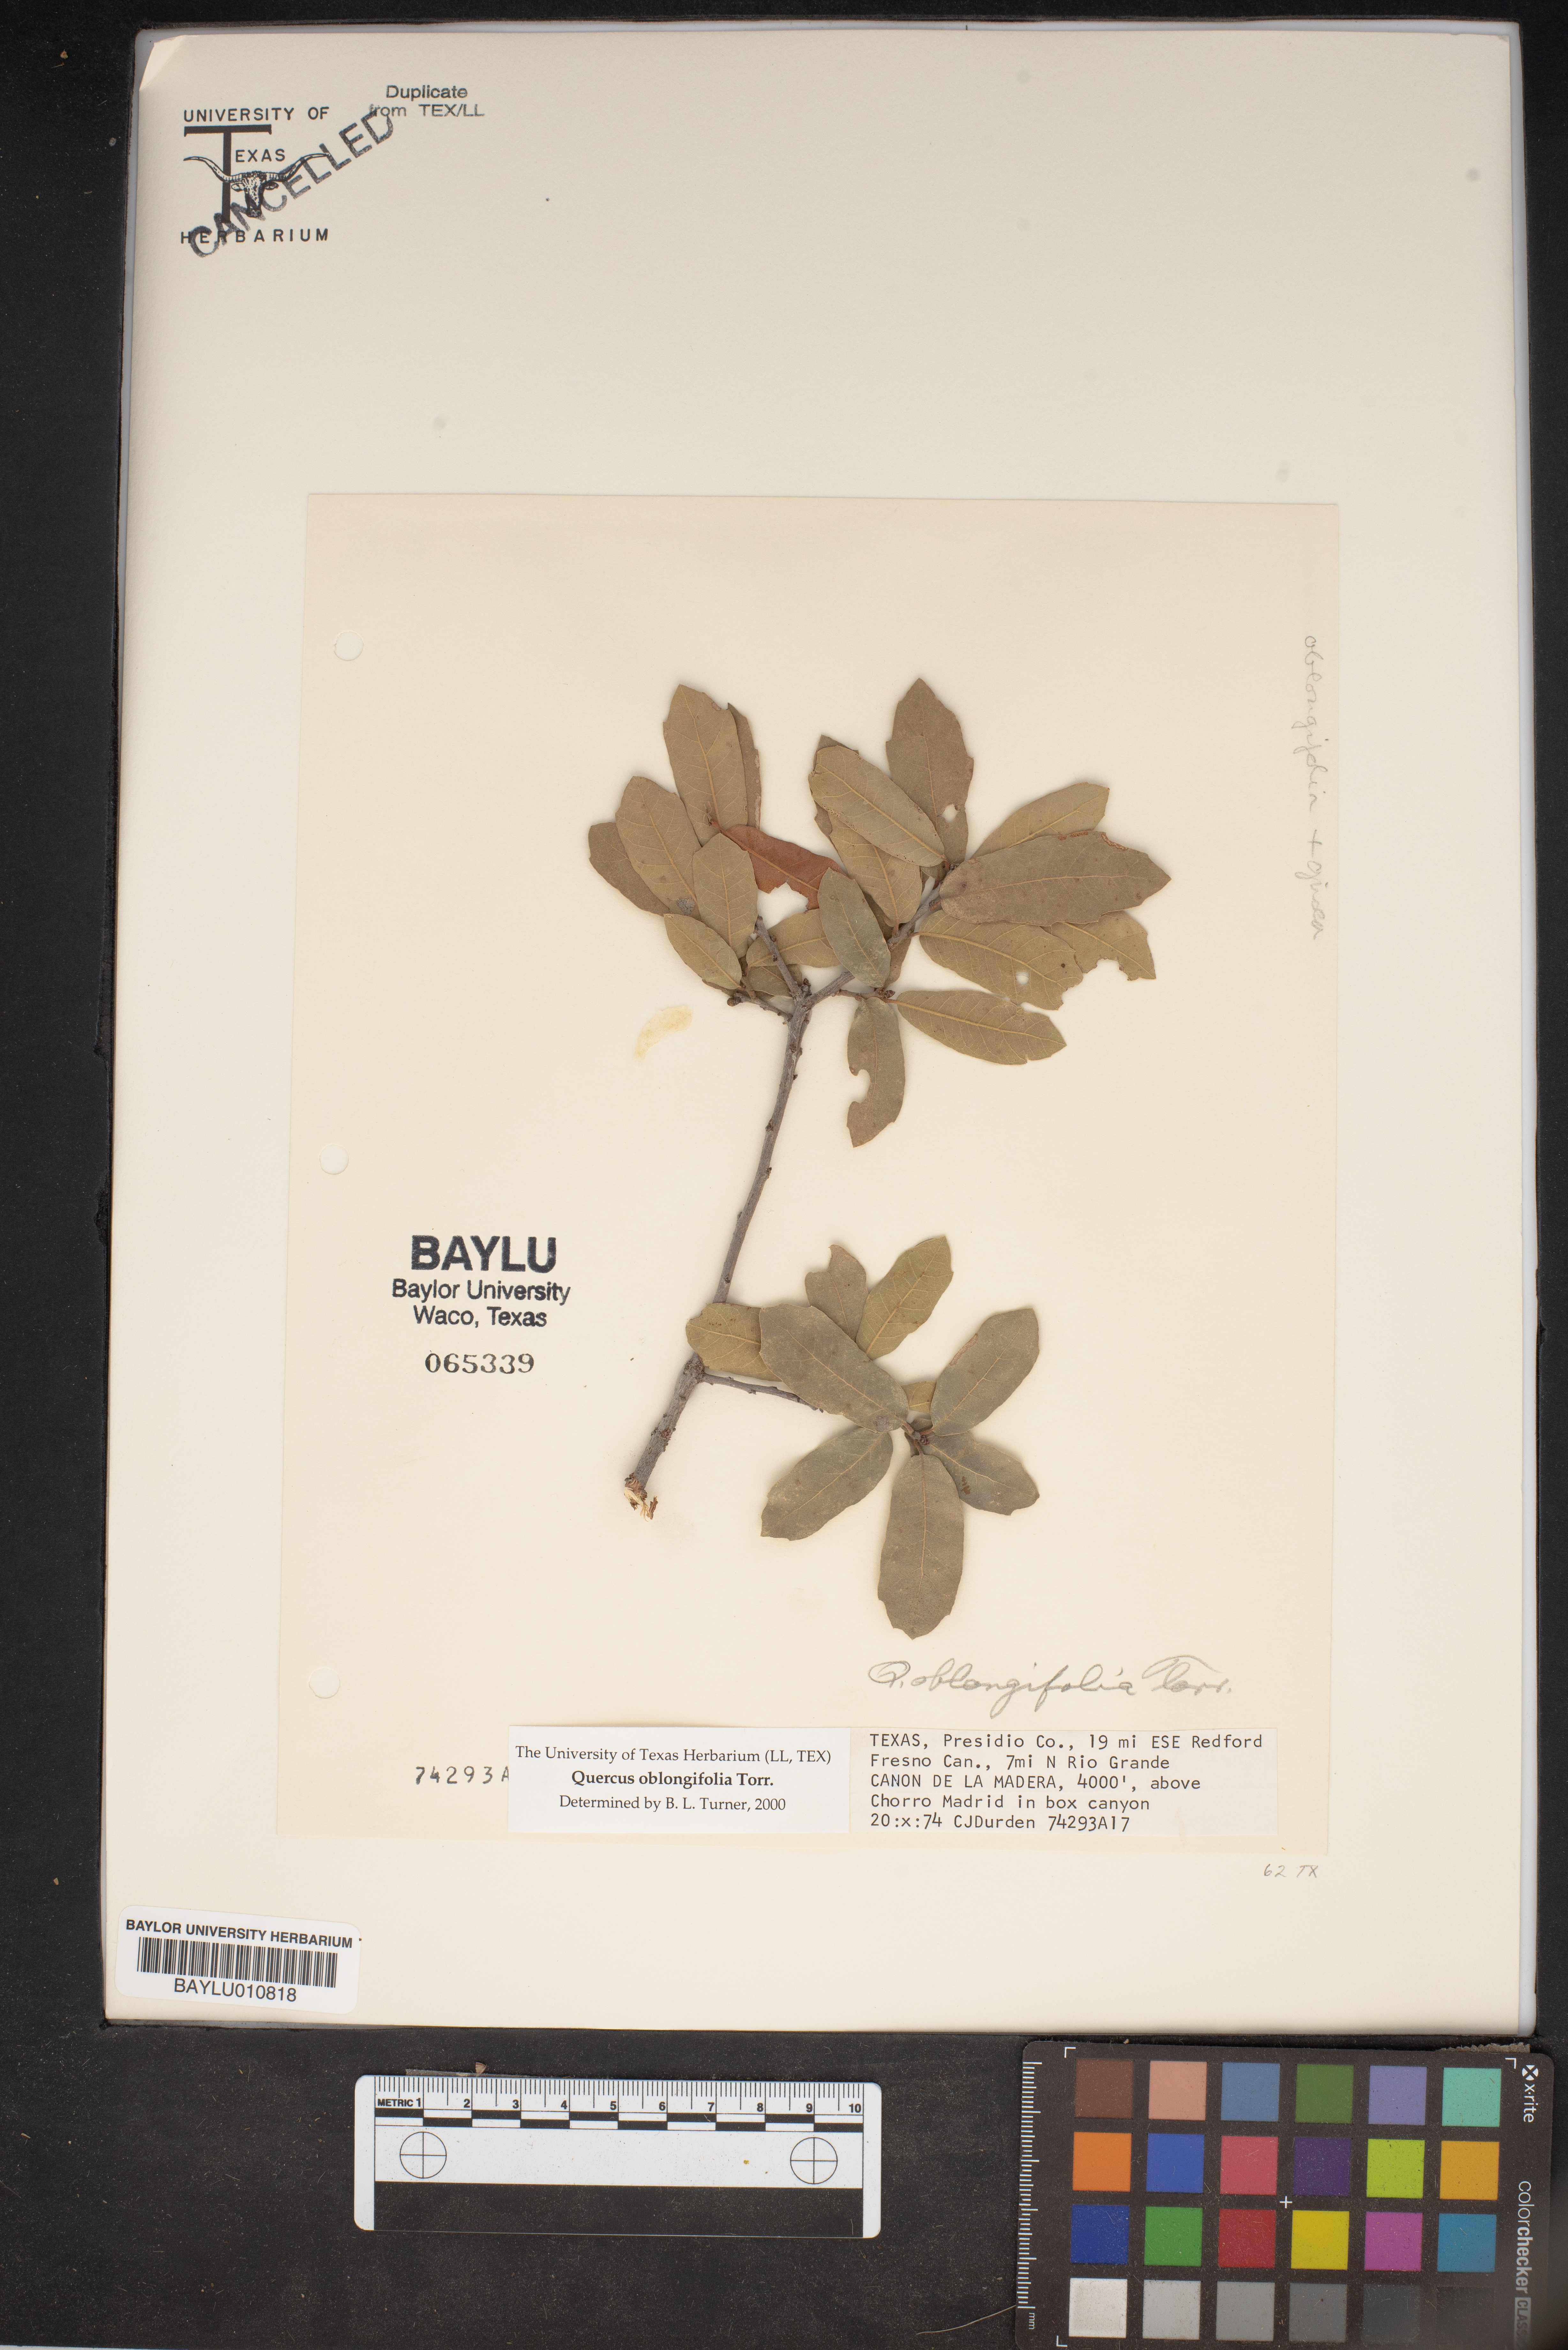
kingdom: Plantae
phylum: Tracheophyta
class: Magnoliopsida
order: Fagales
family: Fagaceae
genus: Quercus
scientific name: Quercus oblongifolia
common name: Mexican blue oak
